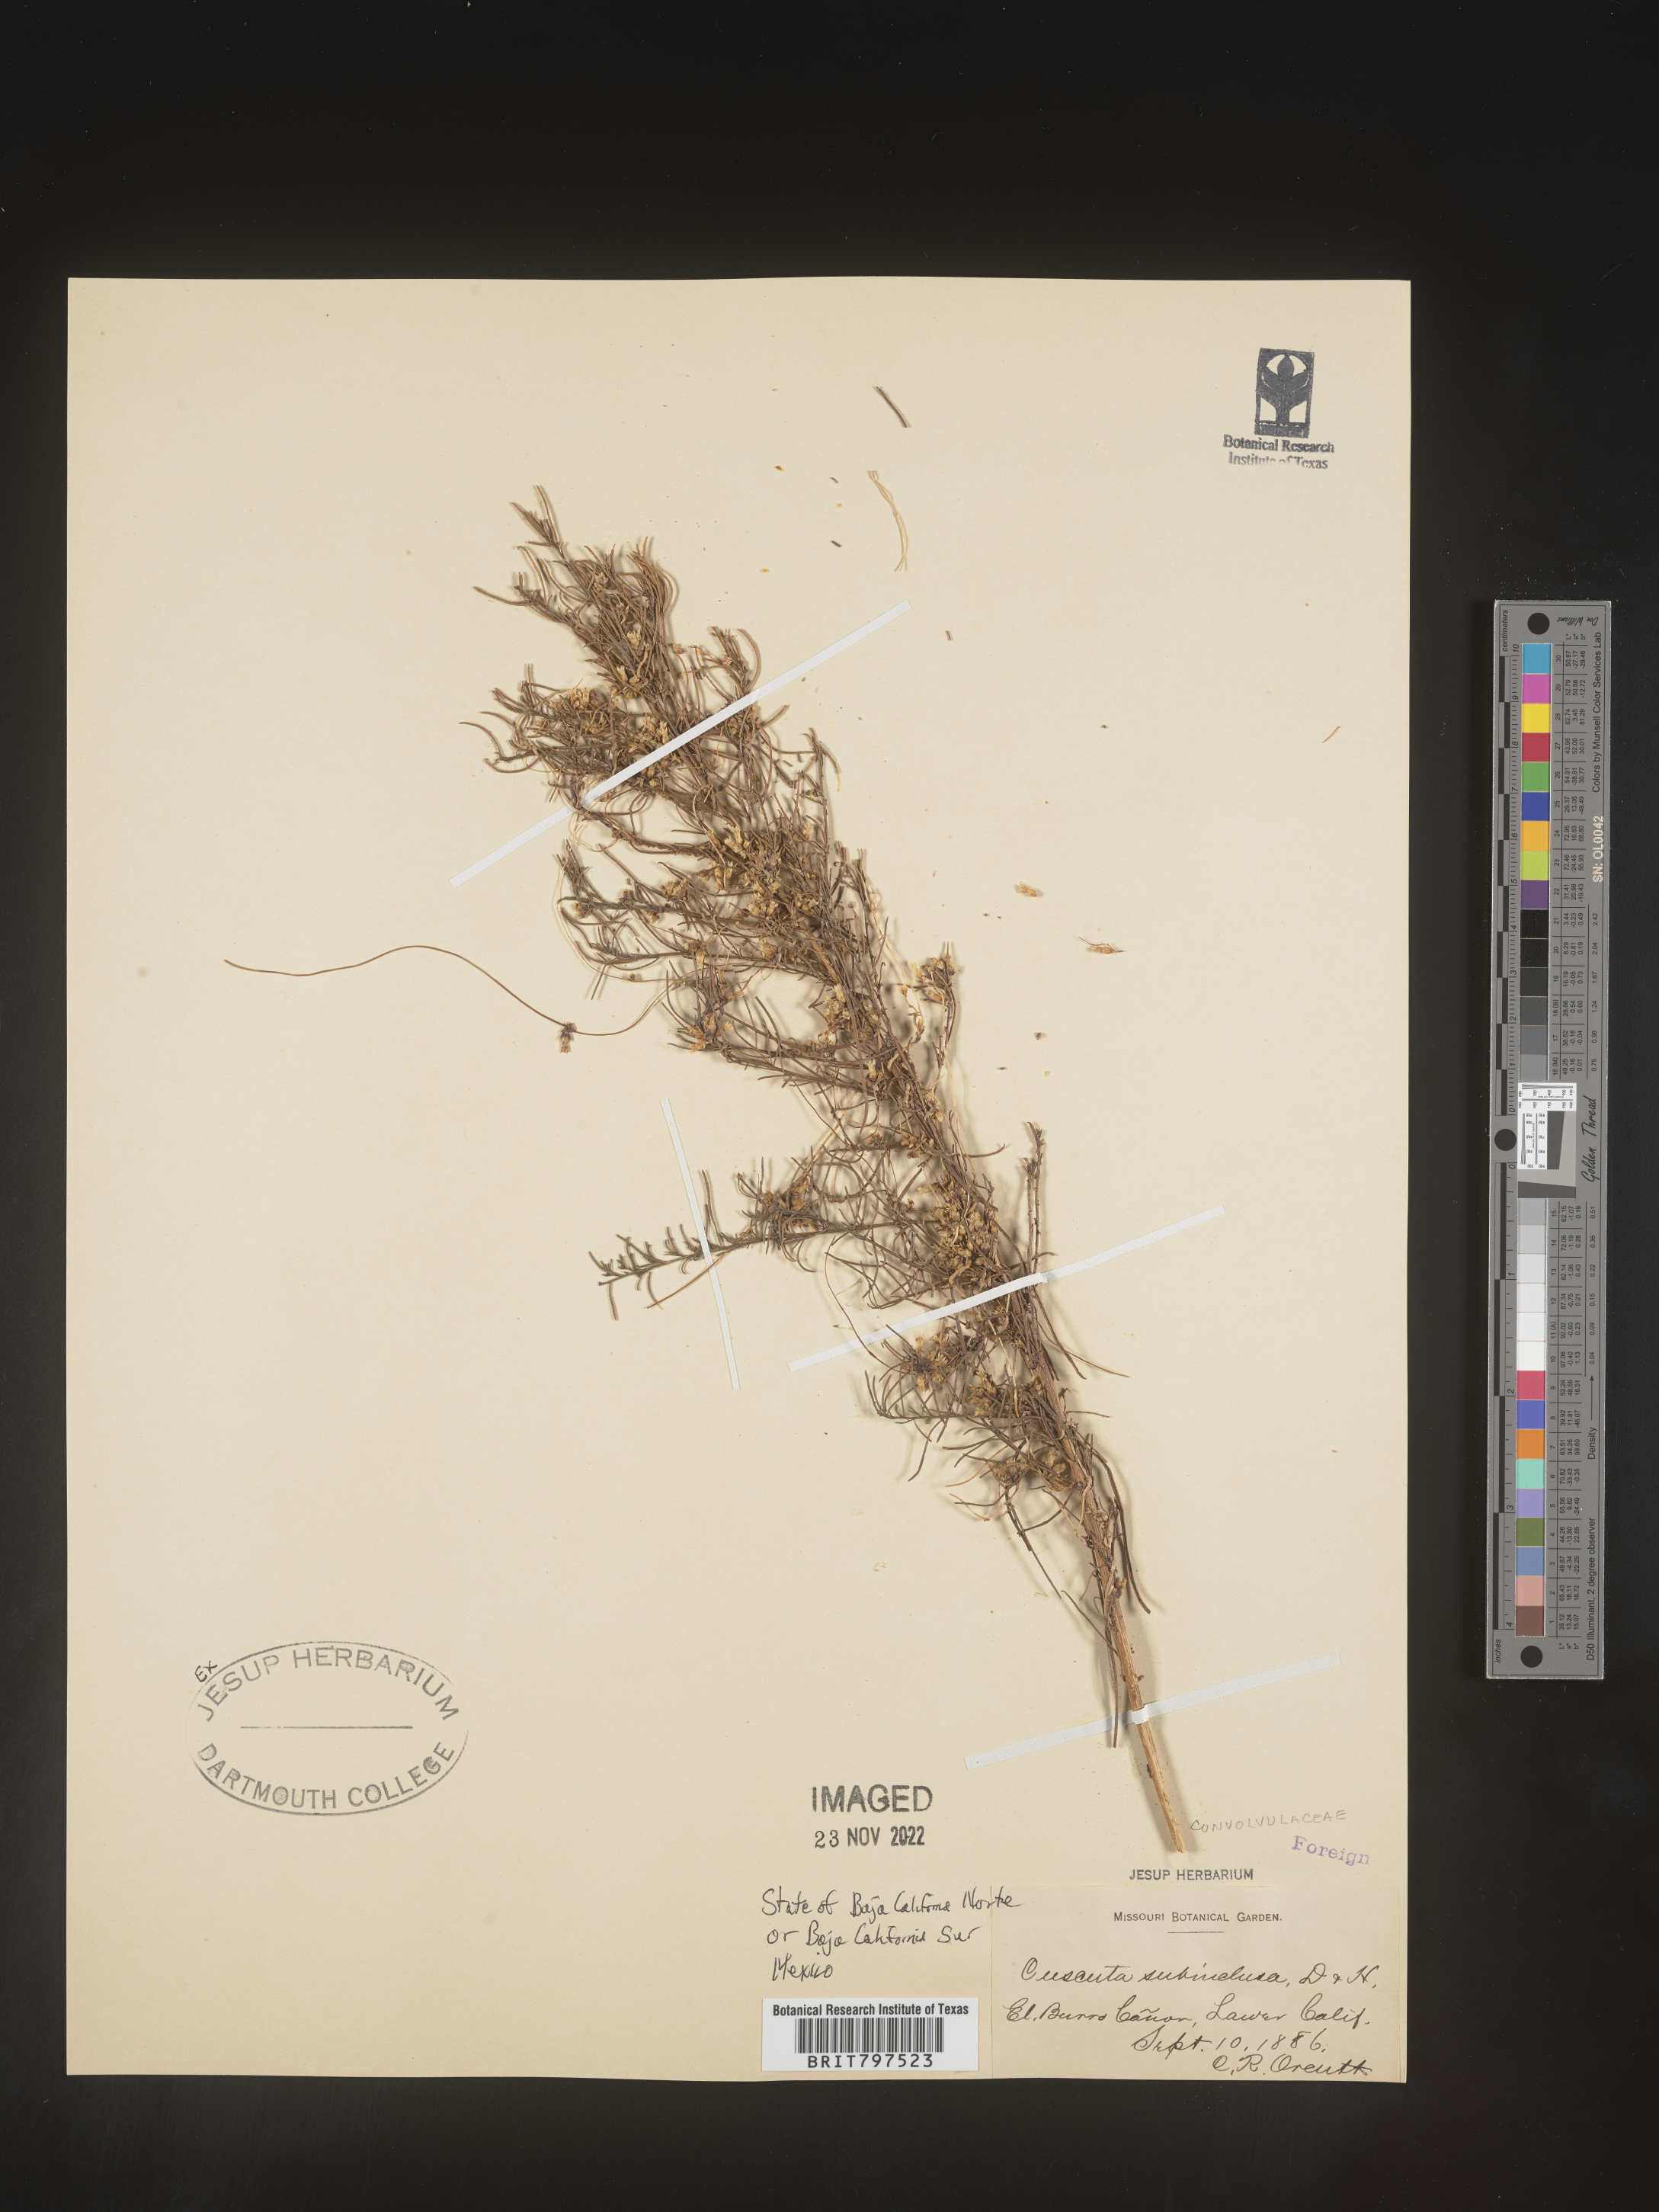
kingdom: Plantae
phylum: Tracheophyta
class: Magnoliopsida
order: Solanales
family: Convolvulaceae
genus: Cuscuta
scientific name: Cuscuta subinclusa
